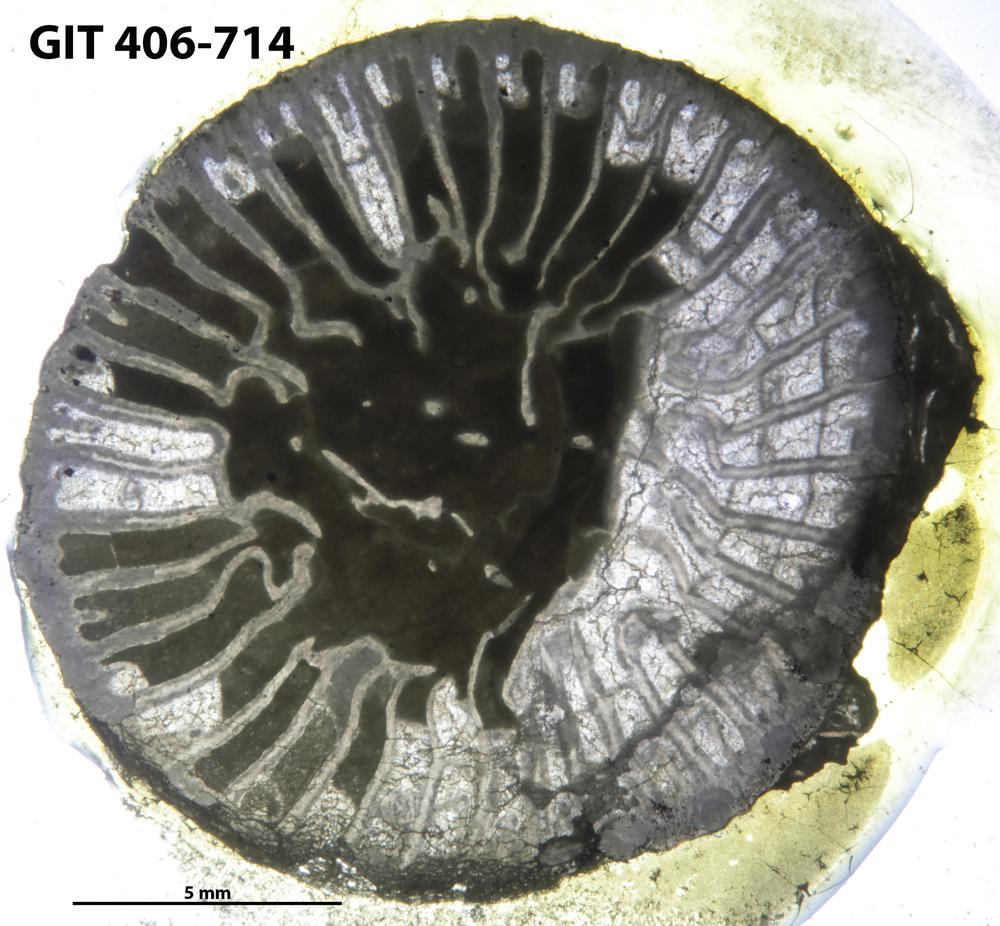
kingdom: Animalia
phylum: Cnidaria
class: Anthozoa
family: Streptelasmatidae
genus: Brachyelasma
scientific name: Brachyelasma
